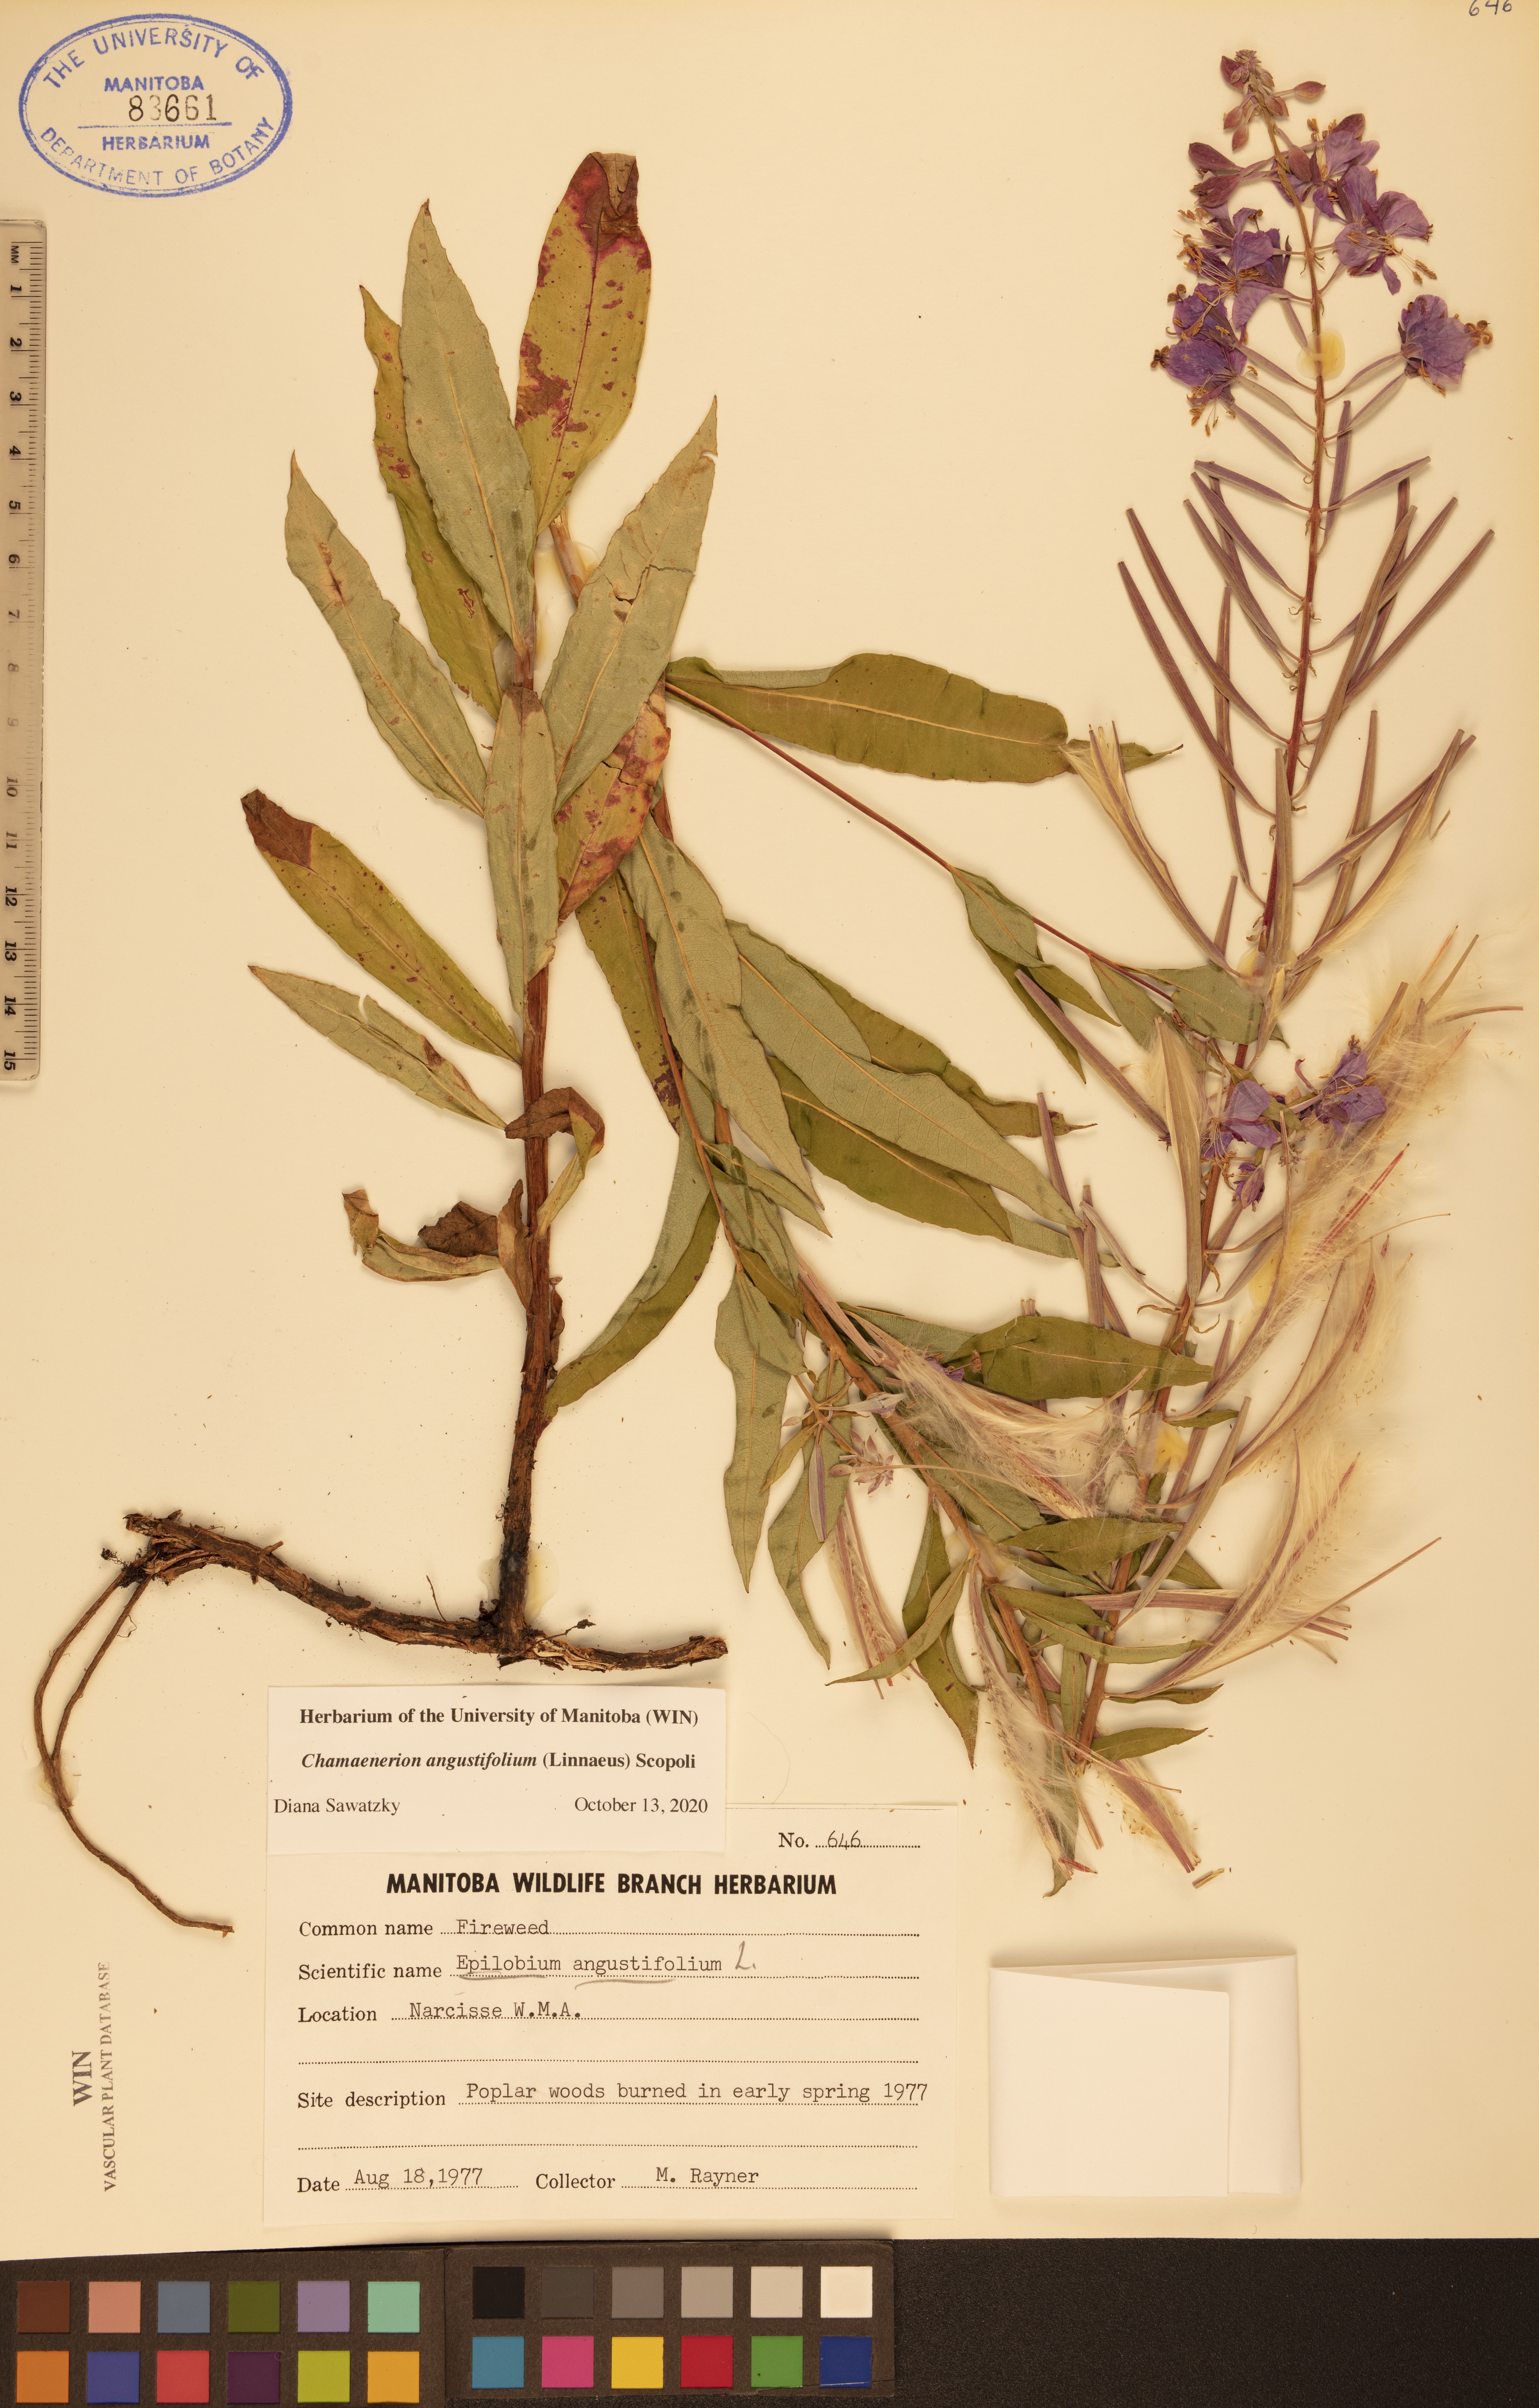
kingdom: Plantae
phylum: Tracheophyta
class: Magnoliopsida
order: Myrtales
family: Onagraceae
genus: Chamaenerion
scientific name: Chamaenerion angustifolium
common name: Fireweed
